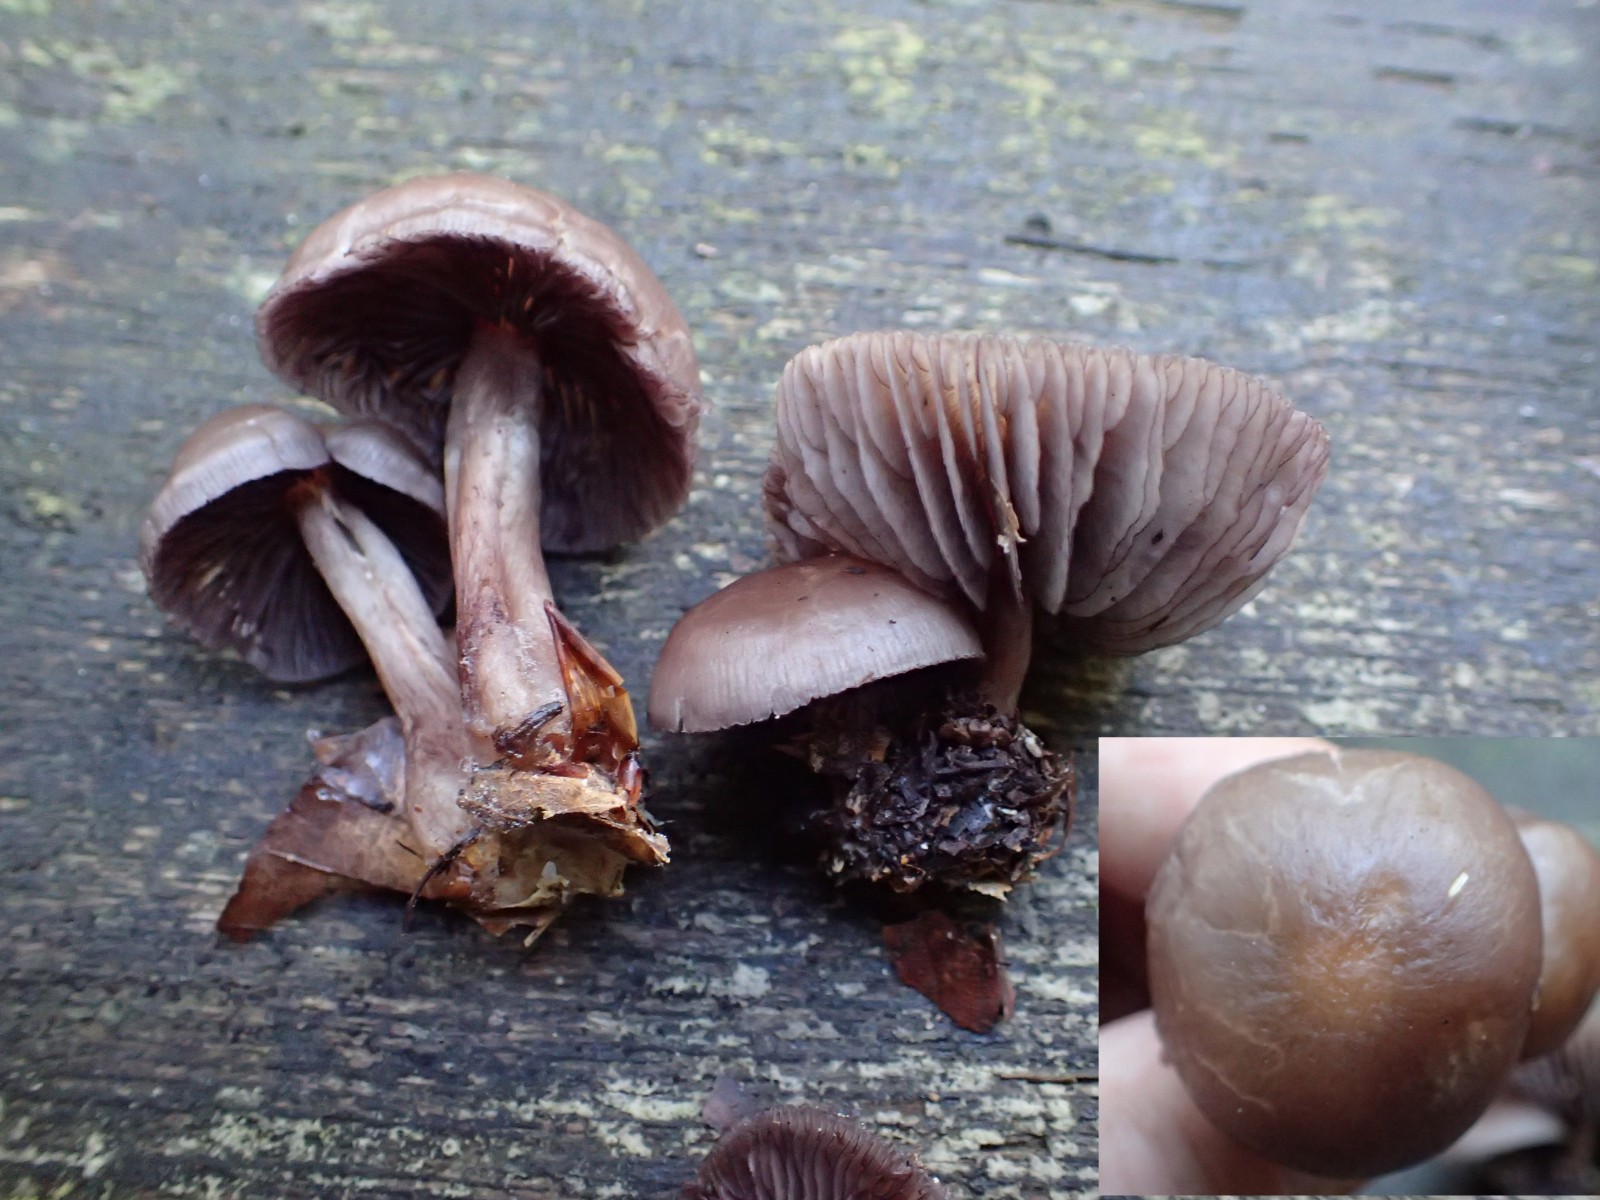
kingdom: Fungi
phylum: Basidiomycota
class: Agaricomycetes
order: Agaricales
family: Mycenaceae
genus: Mycena
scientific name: Mycena pelianthina
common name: mørkbladet huesvamp
